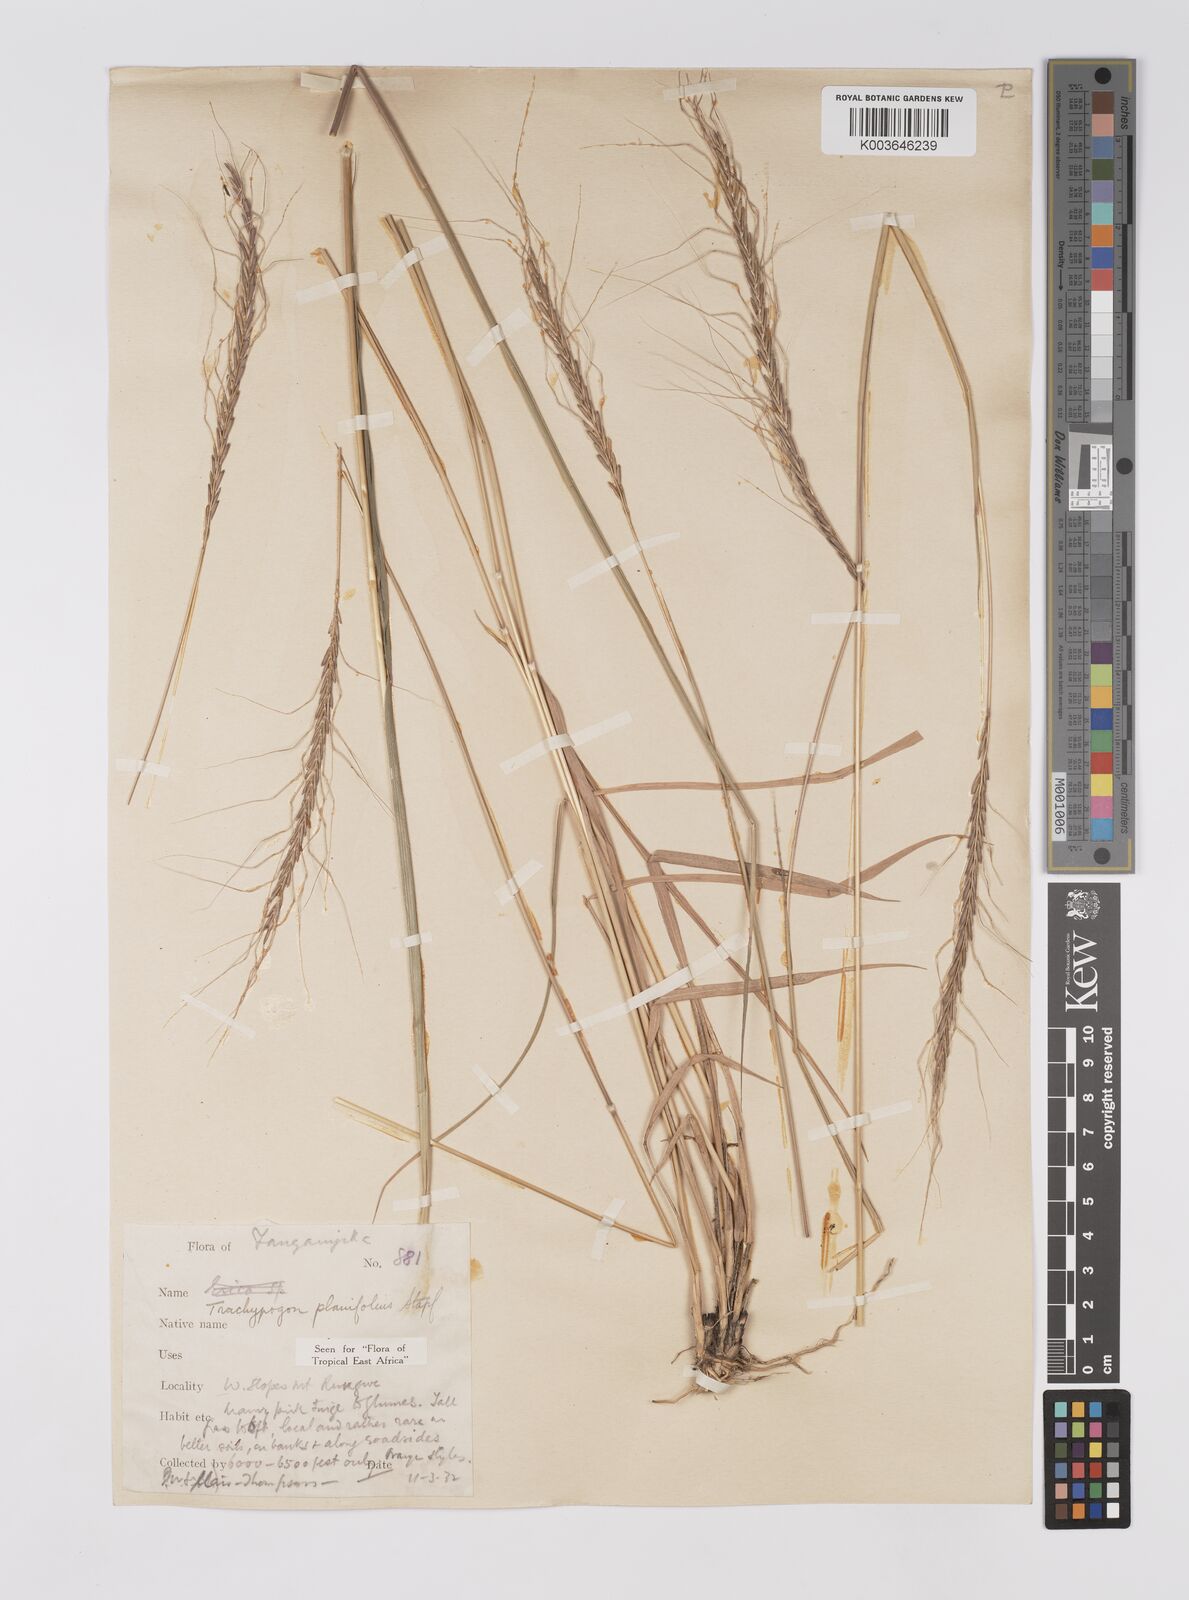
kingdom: Plantae
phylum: Tracheophyta
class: Liliopsida
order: Poales
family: Poaceae
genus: Trachypogon
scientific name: Trachypogon spicatus
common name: Crinkle-awn
